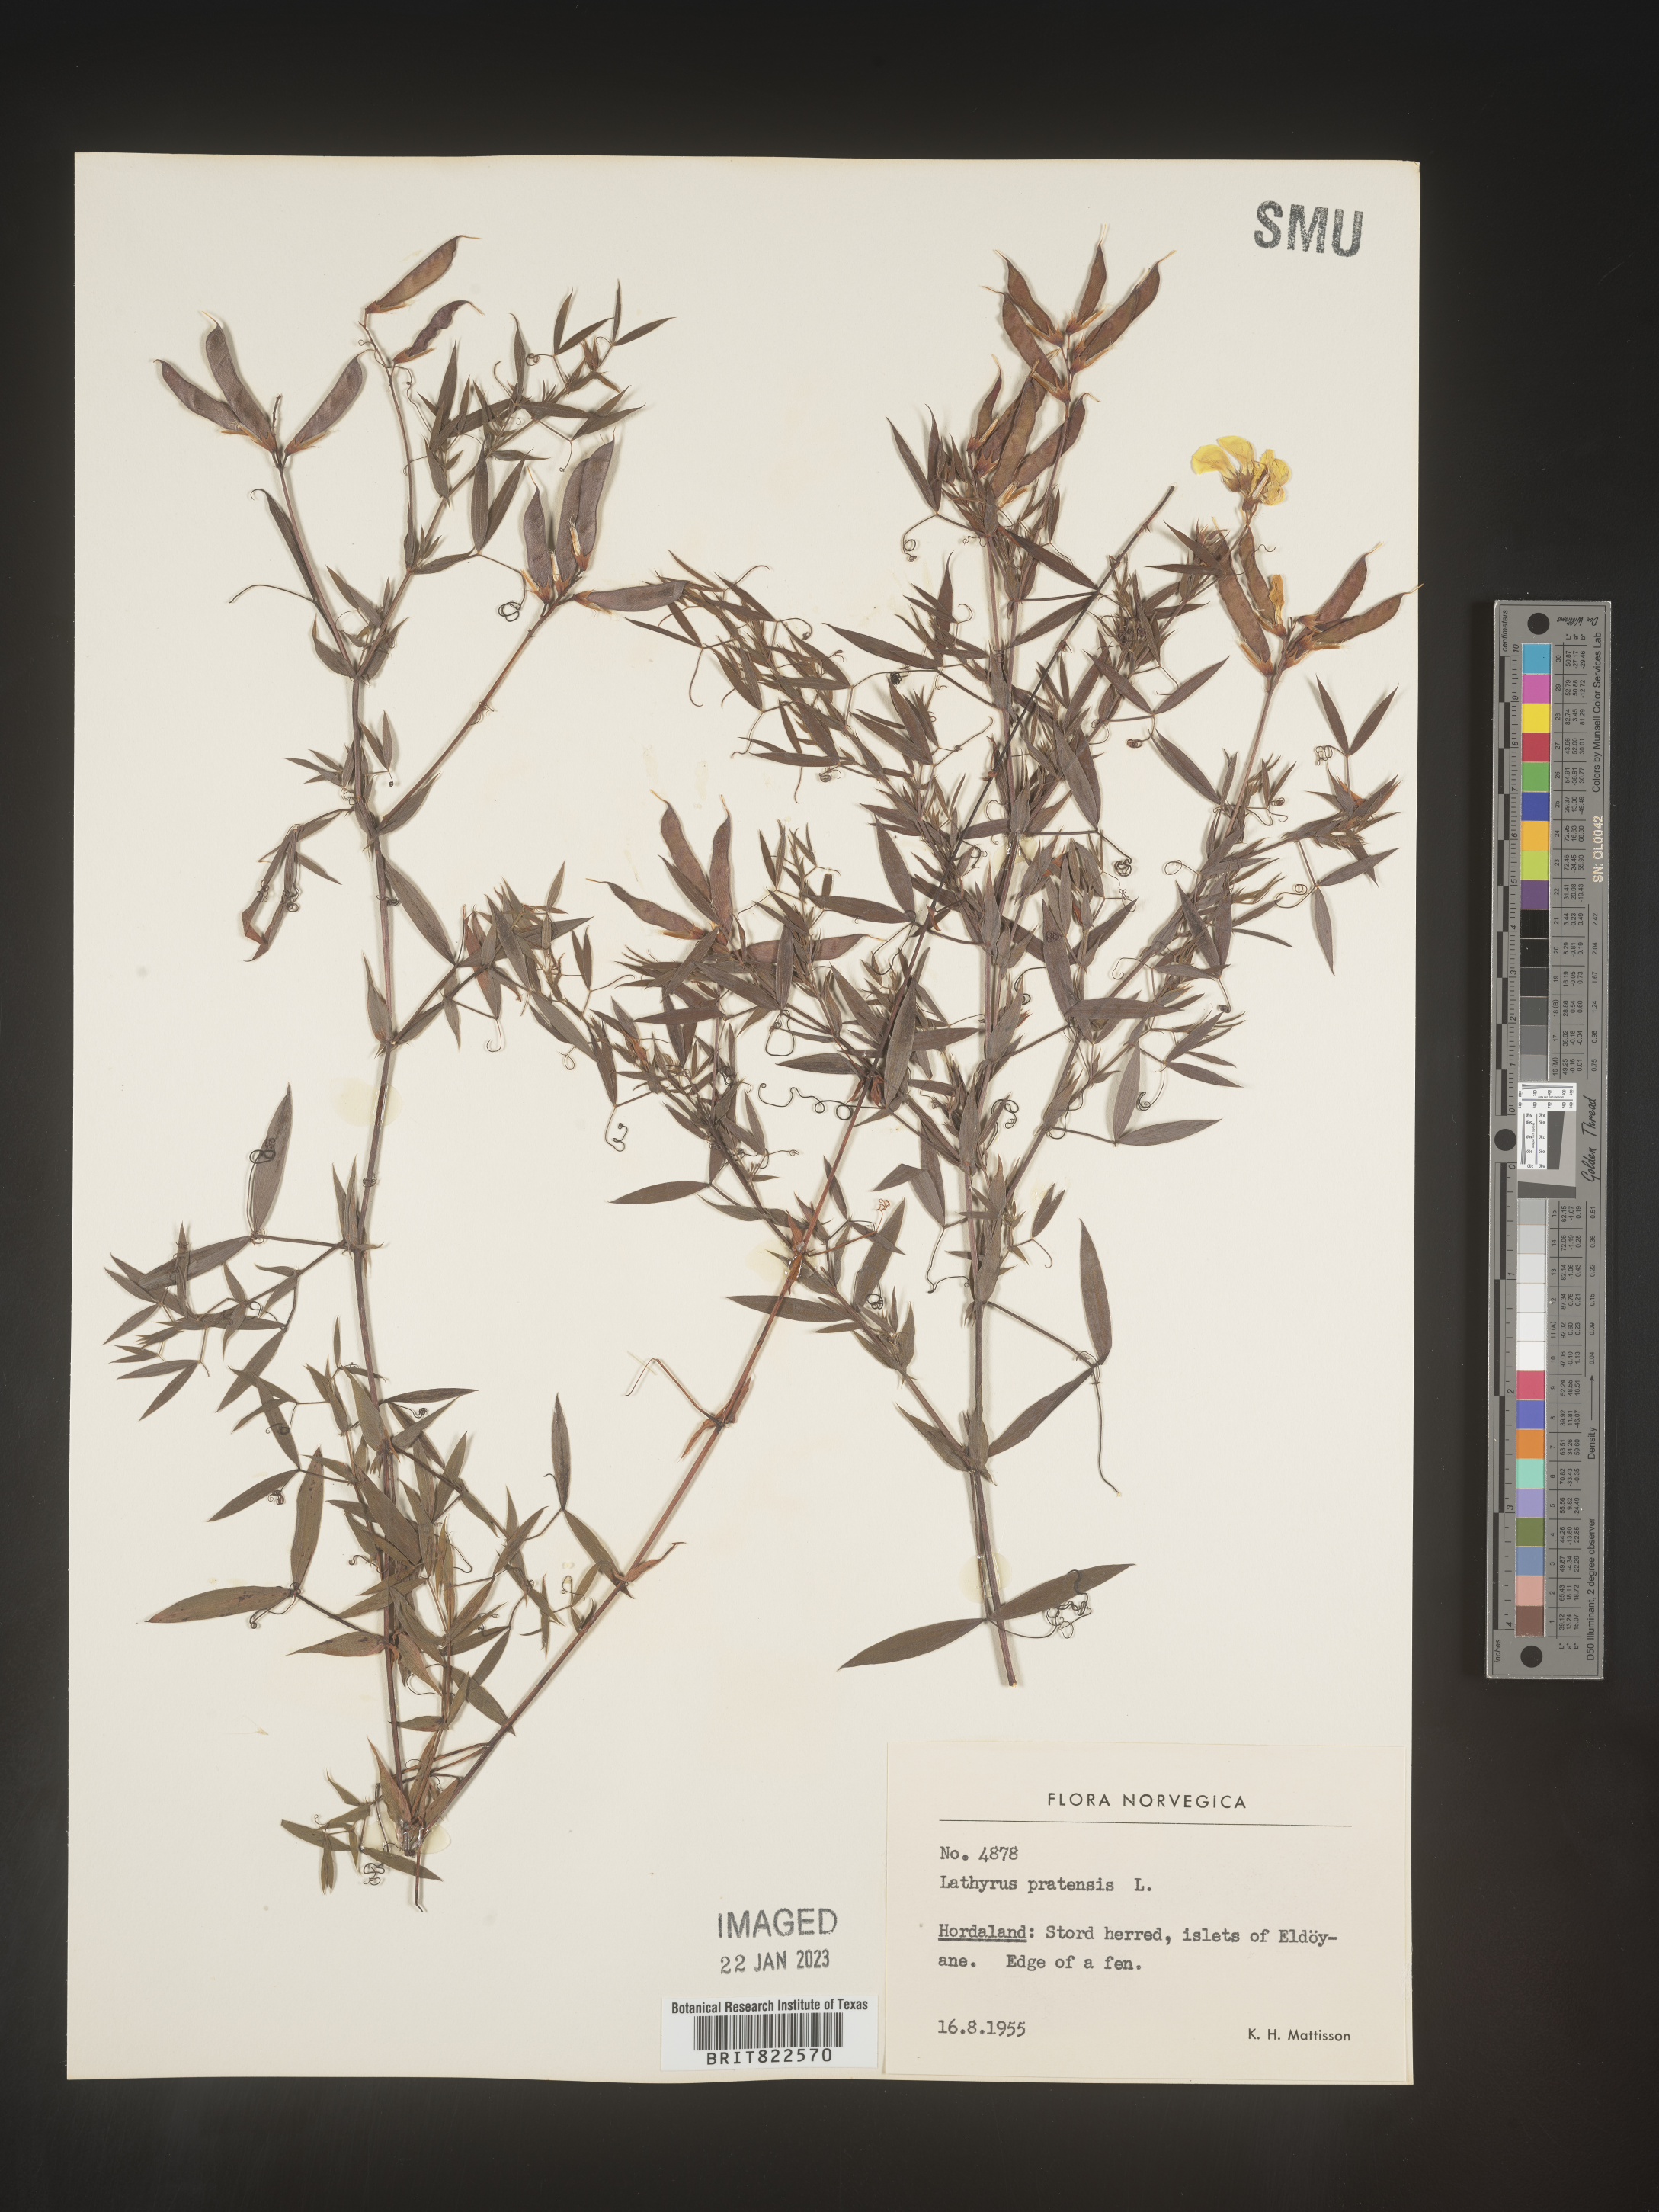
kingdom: Plantae
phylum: Tracheophyta
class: Magnoliopsida
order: Fabales
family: Fabaceae
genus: Lathyrus
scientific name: Lathyrus
